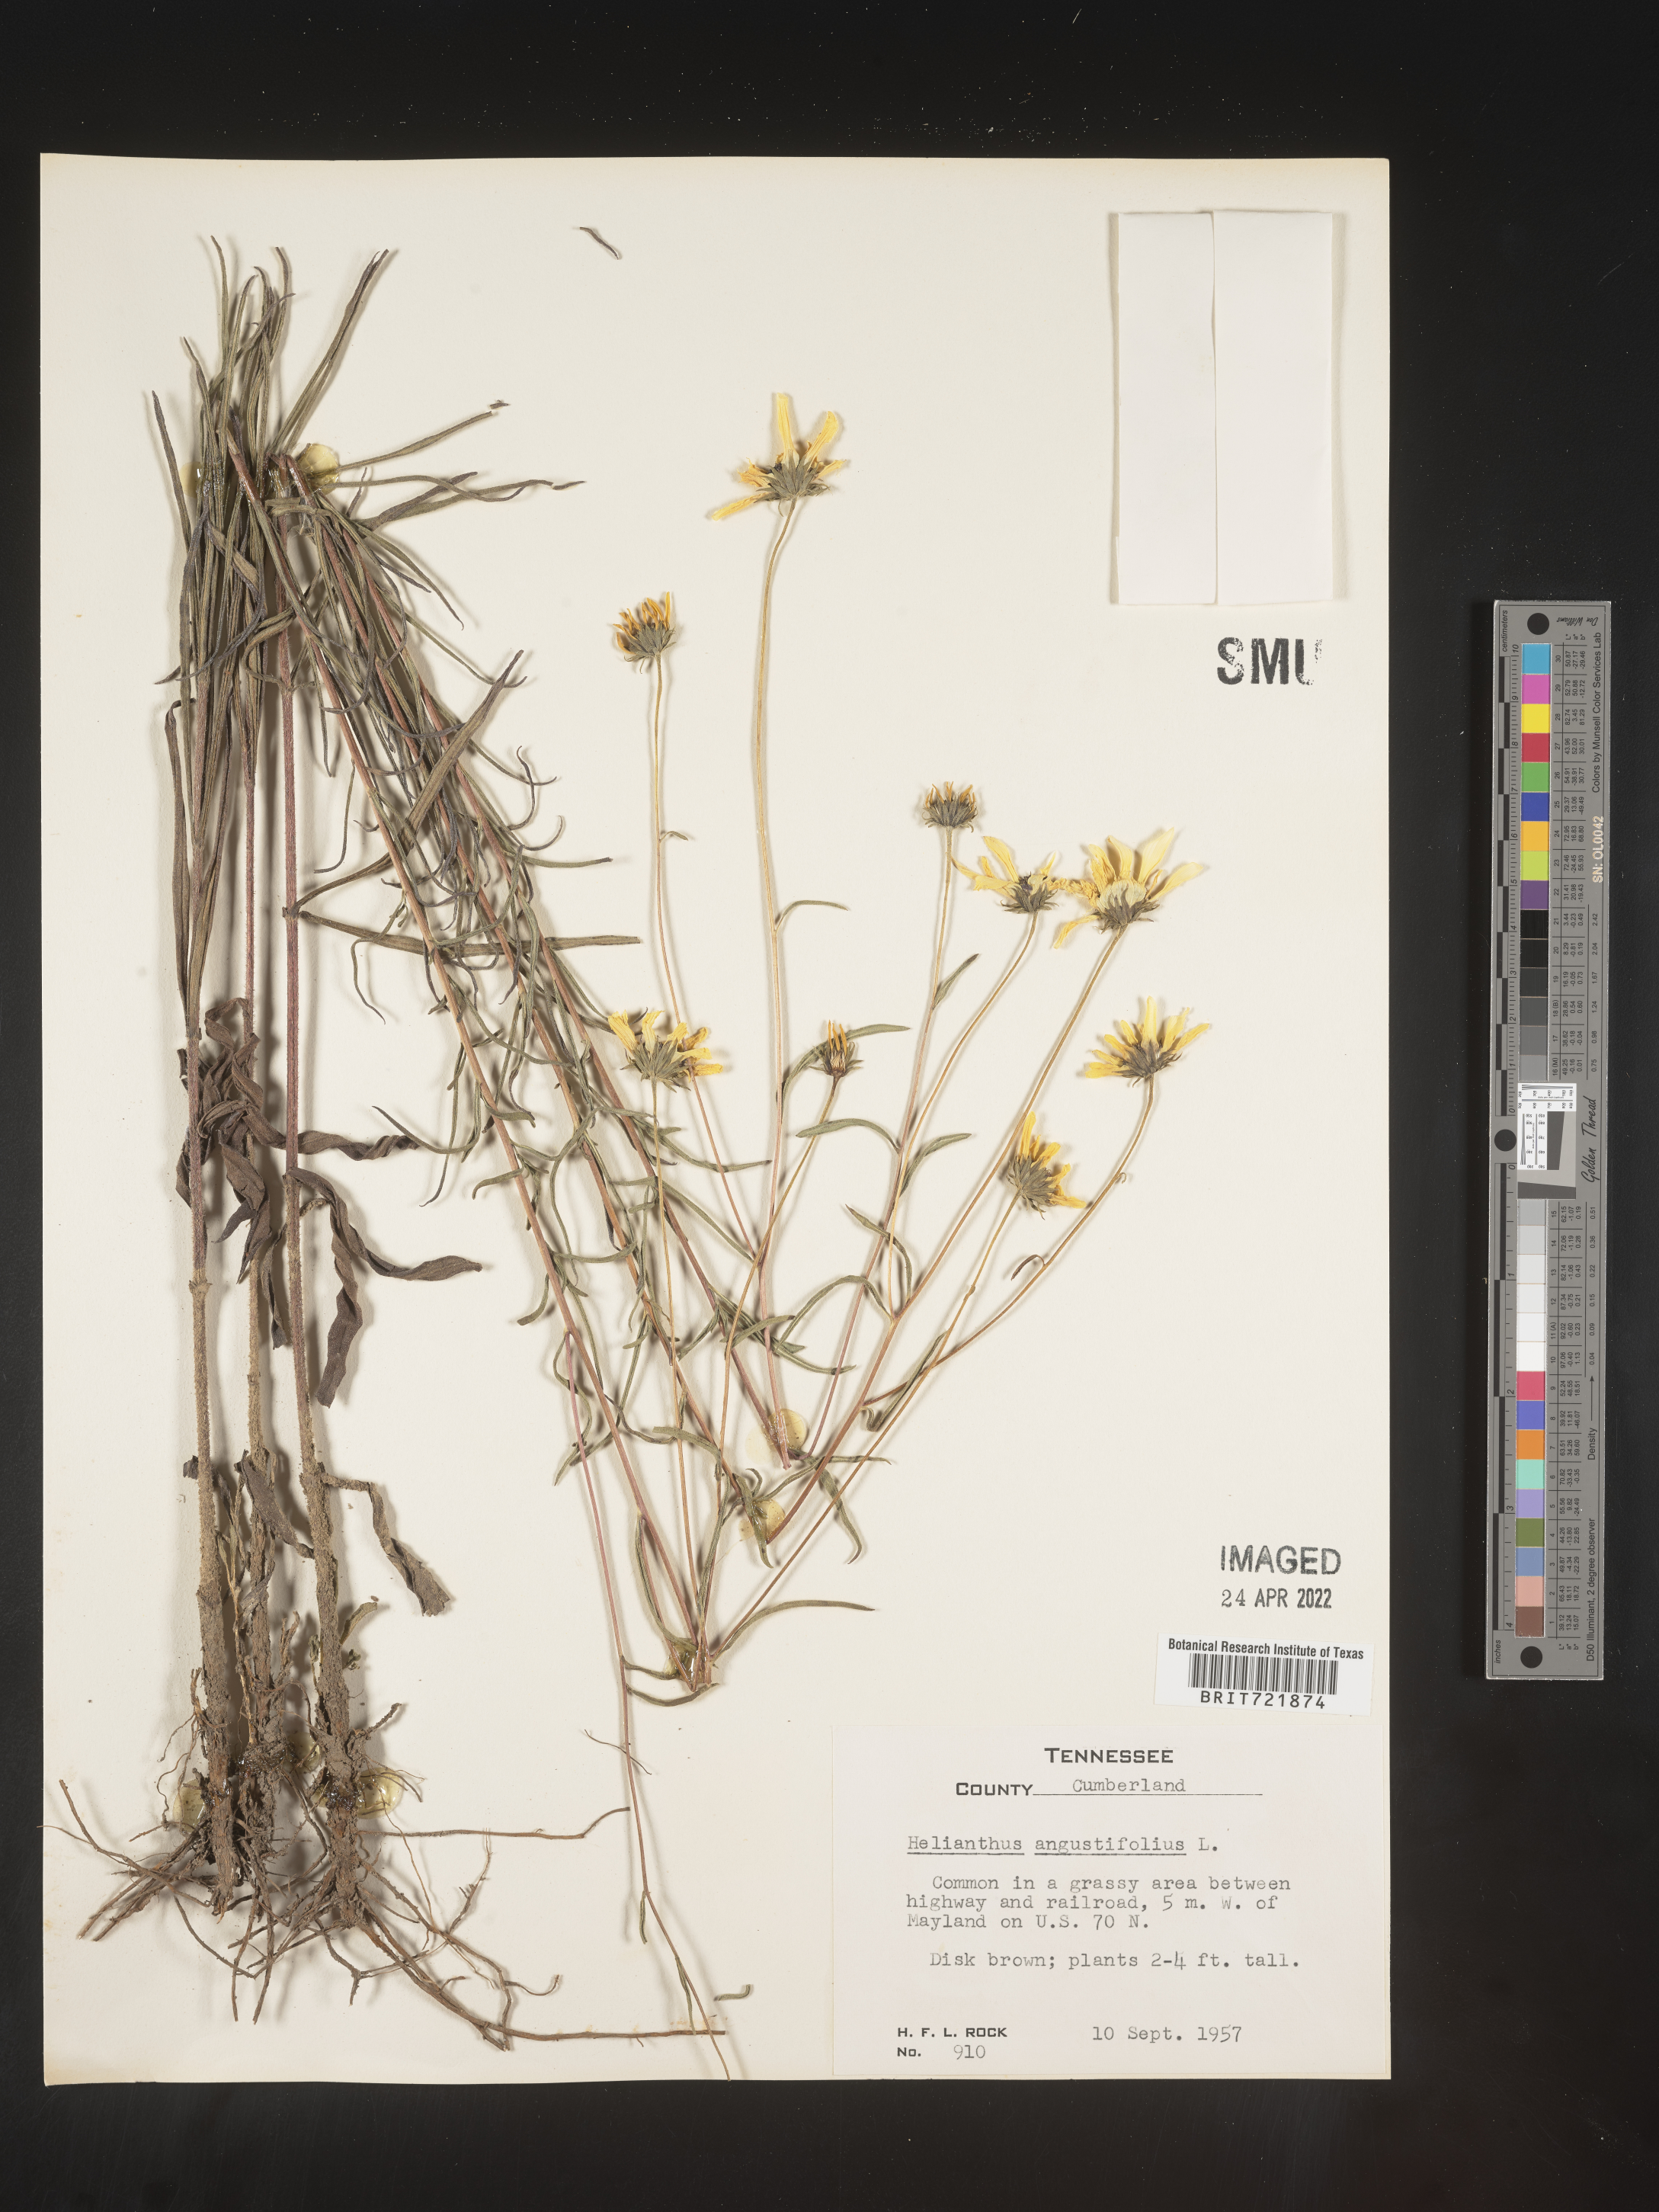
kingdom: Plantae
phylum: Tracheophyta
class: Magnoliopsida
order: Asterales
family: Asteraceae
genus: Helianthus
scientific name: Helianthus angustifolius
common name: Swamp sunflower
